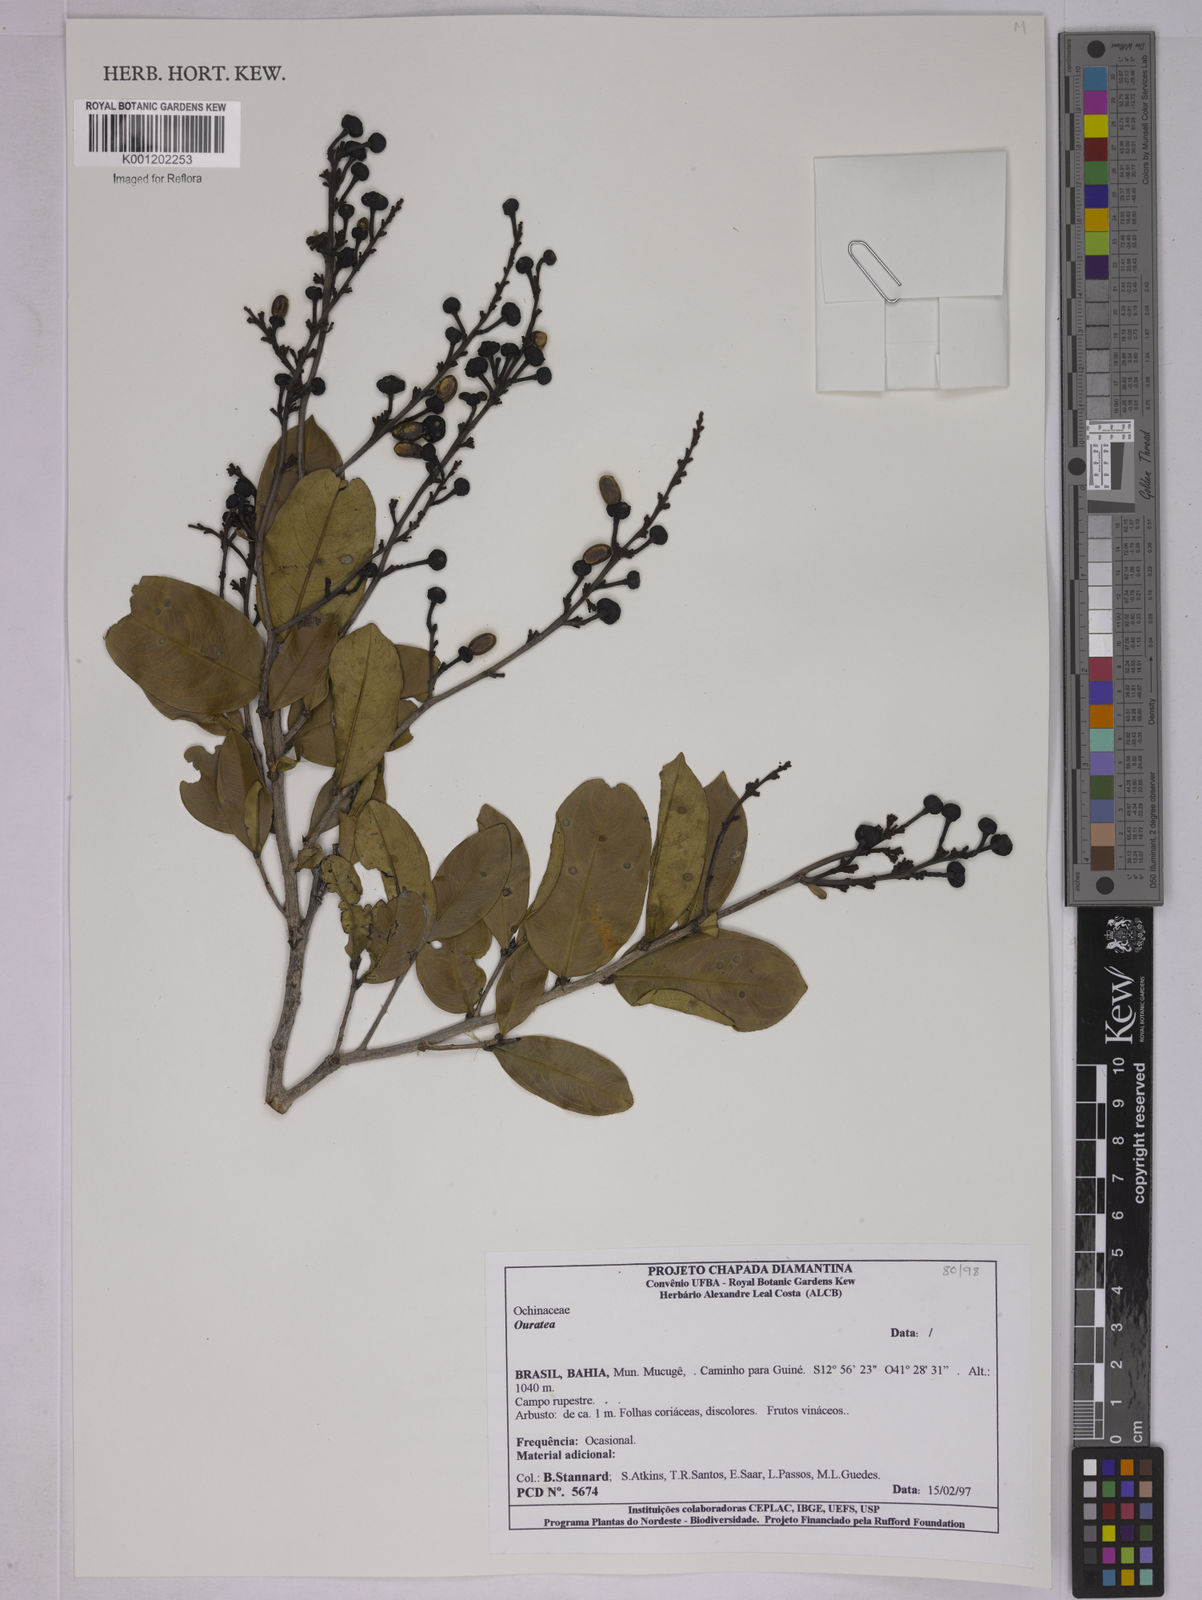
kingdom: Plantae
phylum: Tracheophyta
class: Magnoliopsida
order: Malpighiales
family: Ochnaceae
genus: Ouratea
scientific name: Ouratea
